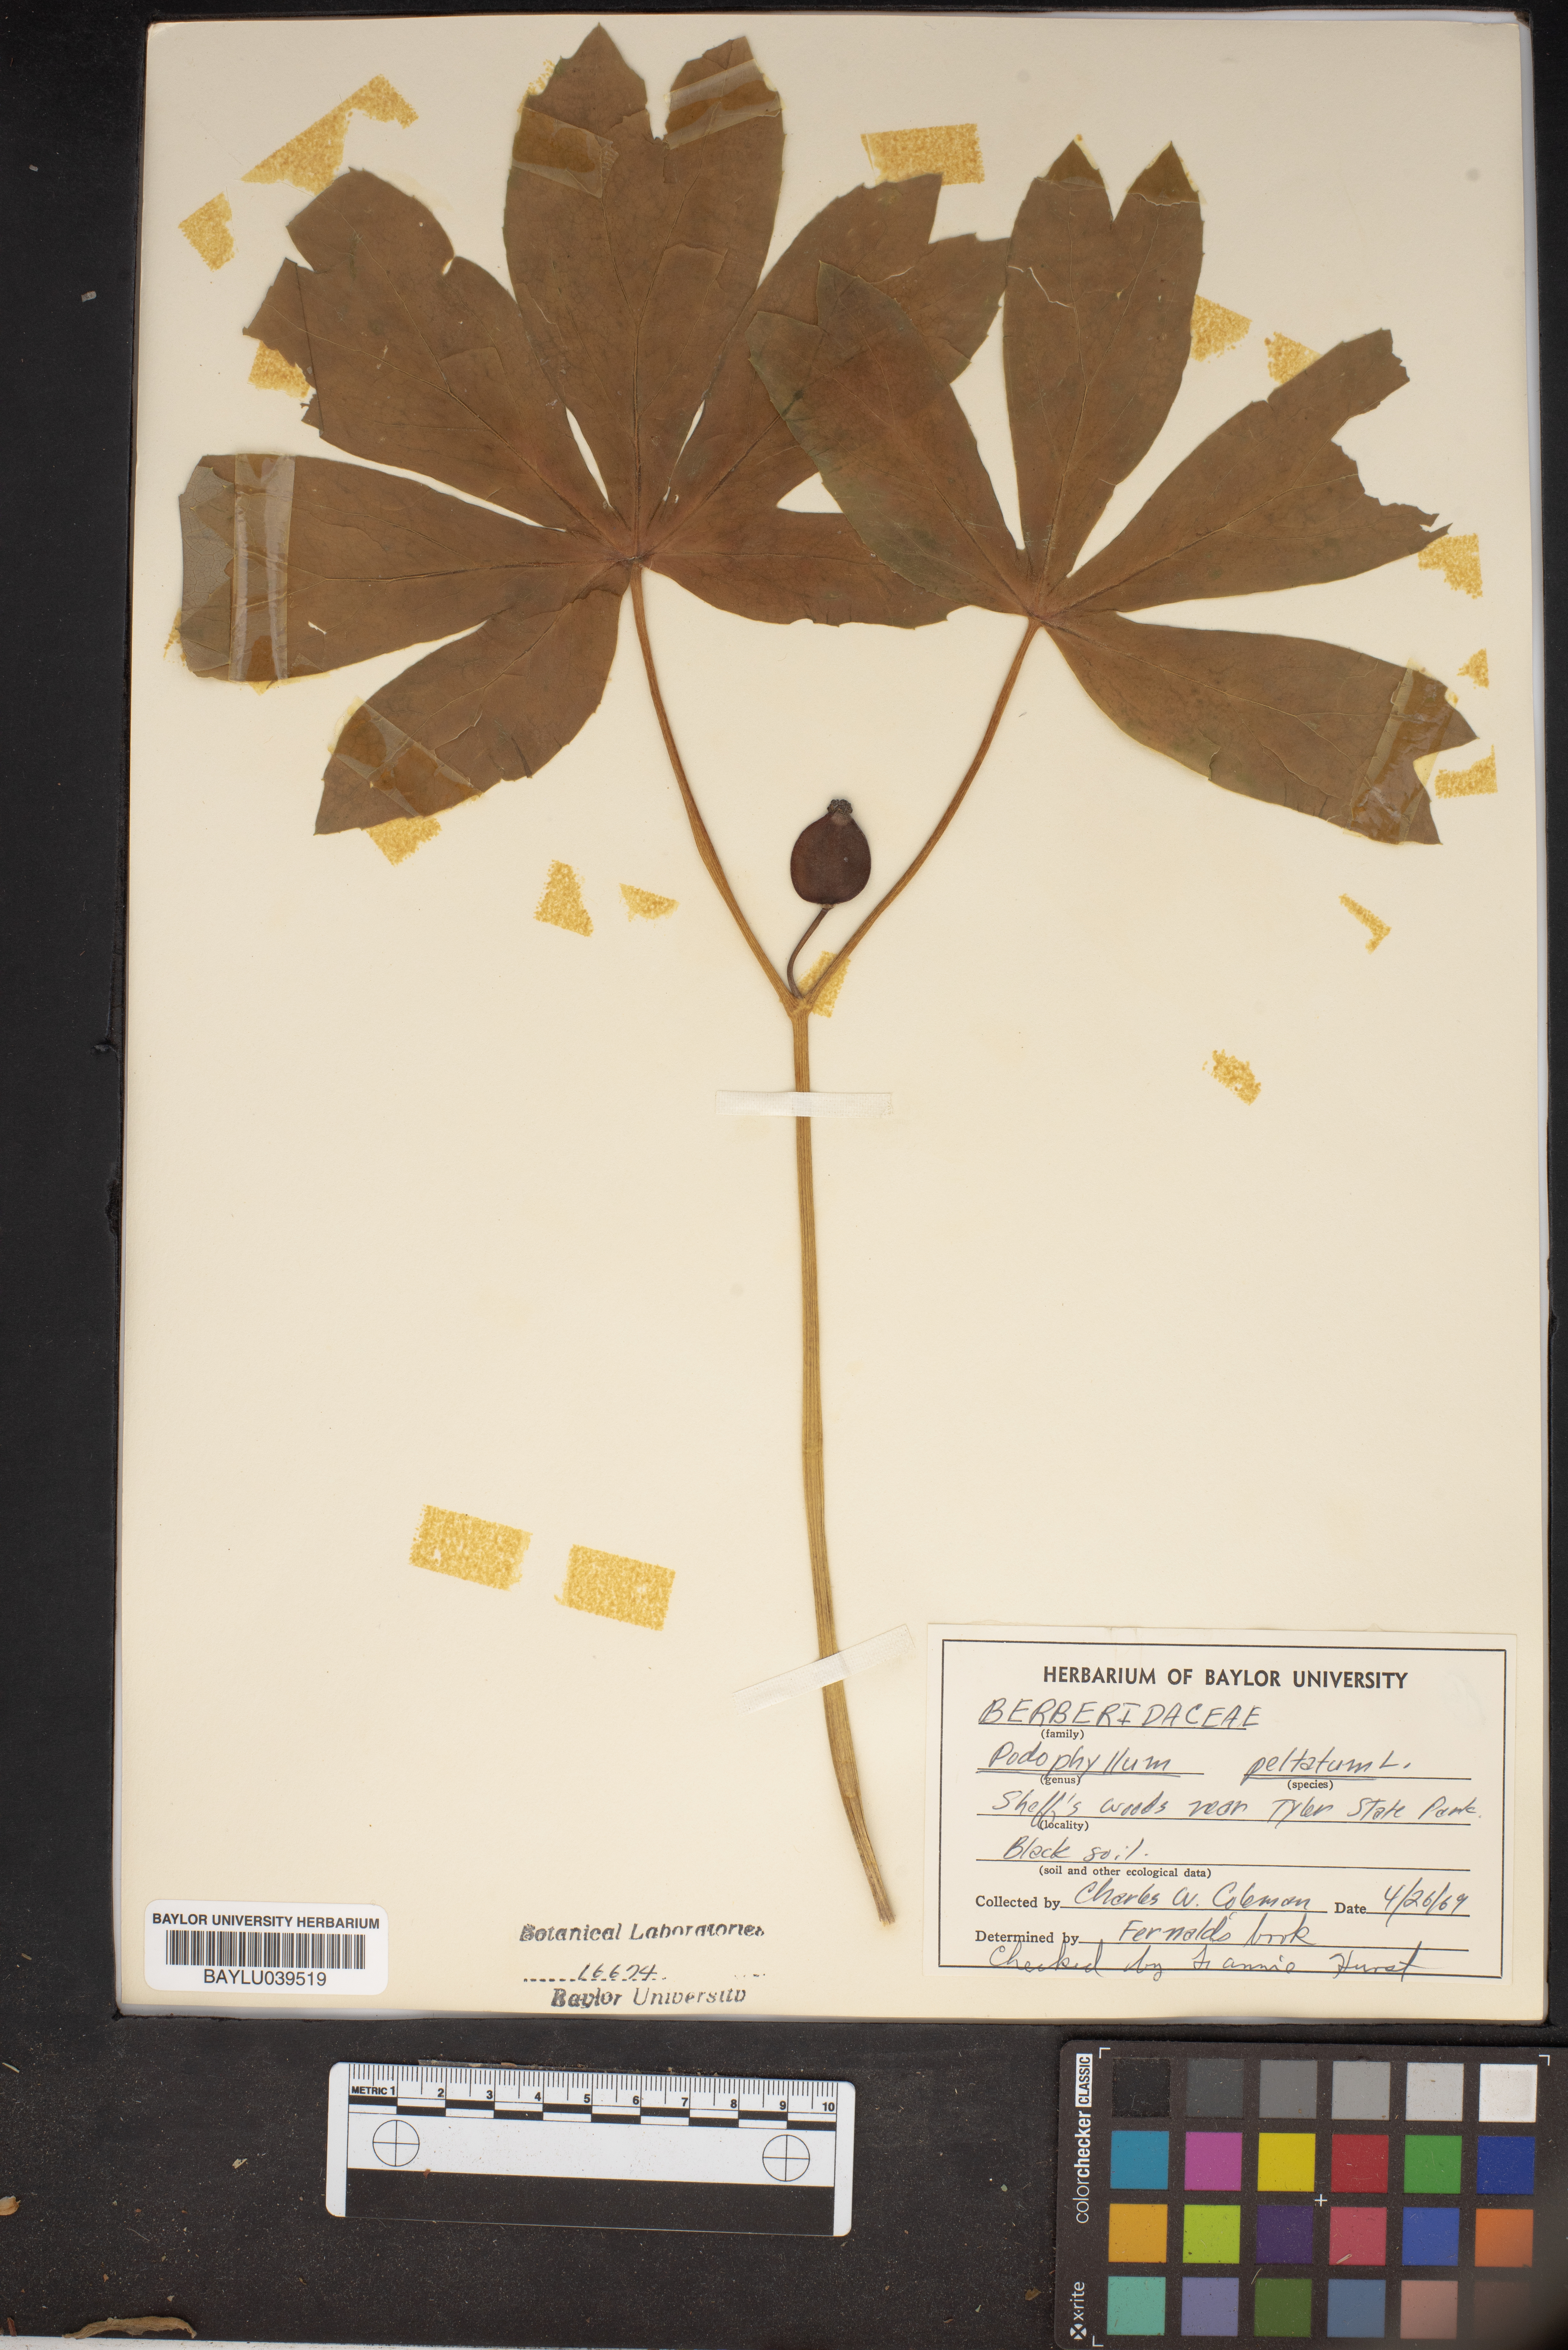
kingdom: Plantae
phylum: Tracheophyta
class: Magnoliopsida
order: Ranunculales
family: Berberidaceae
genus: Podophyllum
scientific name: Podophyllum peltatum
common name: Wild mandrake
